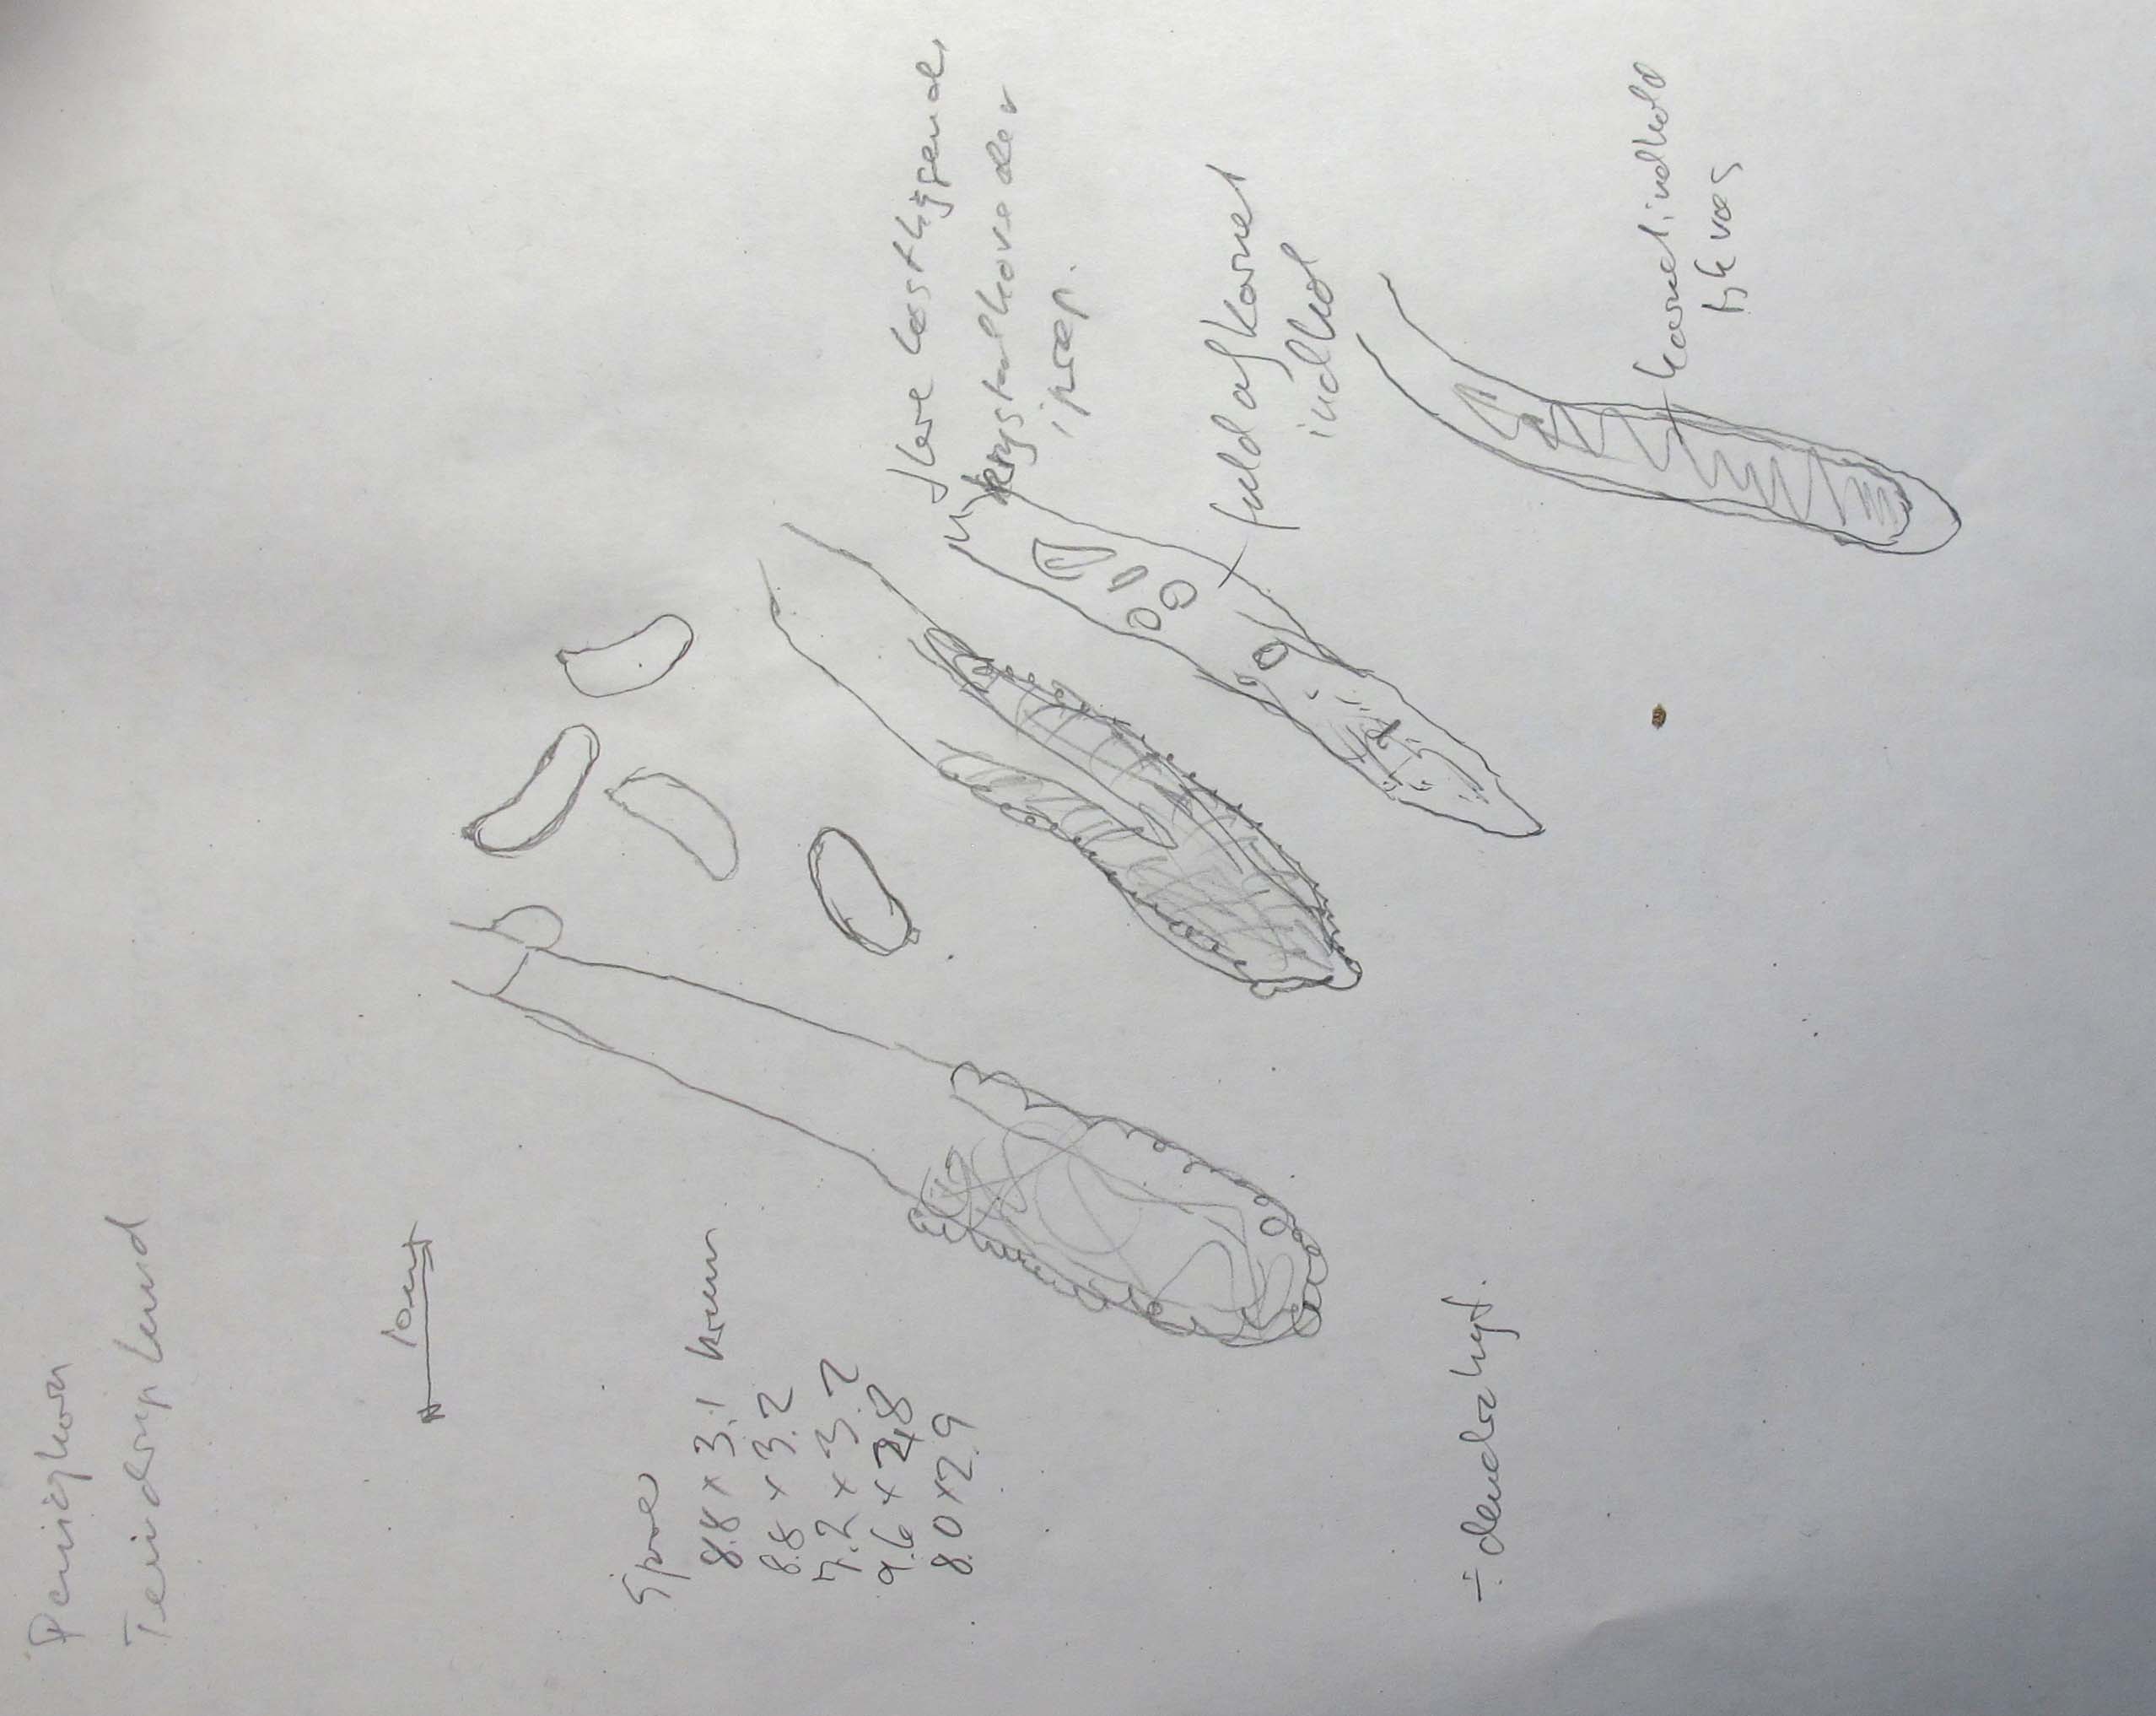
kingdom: Fungi
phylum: Basidiomycota
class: Agaricomycetes
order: Russulales
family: Peniophoraceae
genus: Peniophora
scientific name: Peniophora cinerea
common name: grå voksskind
